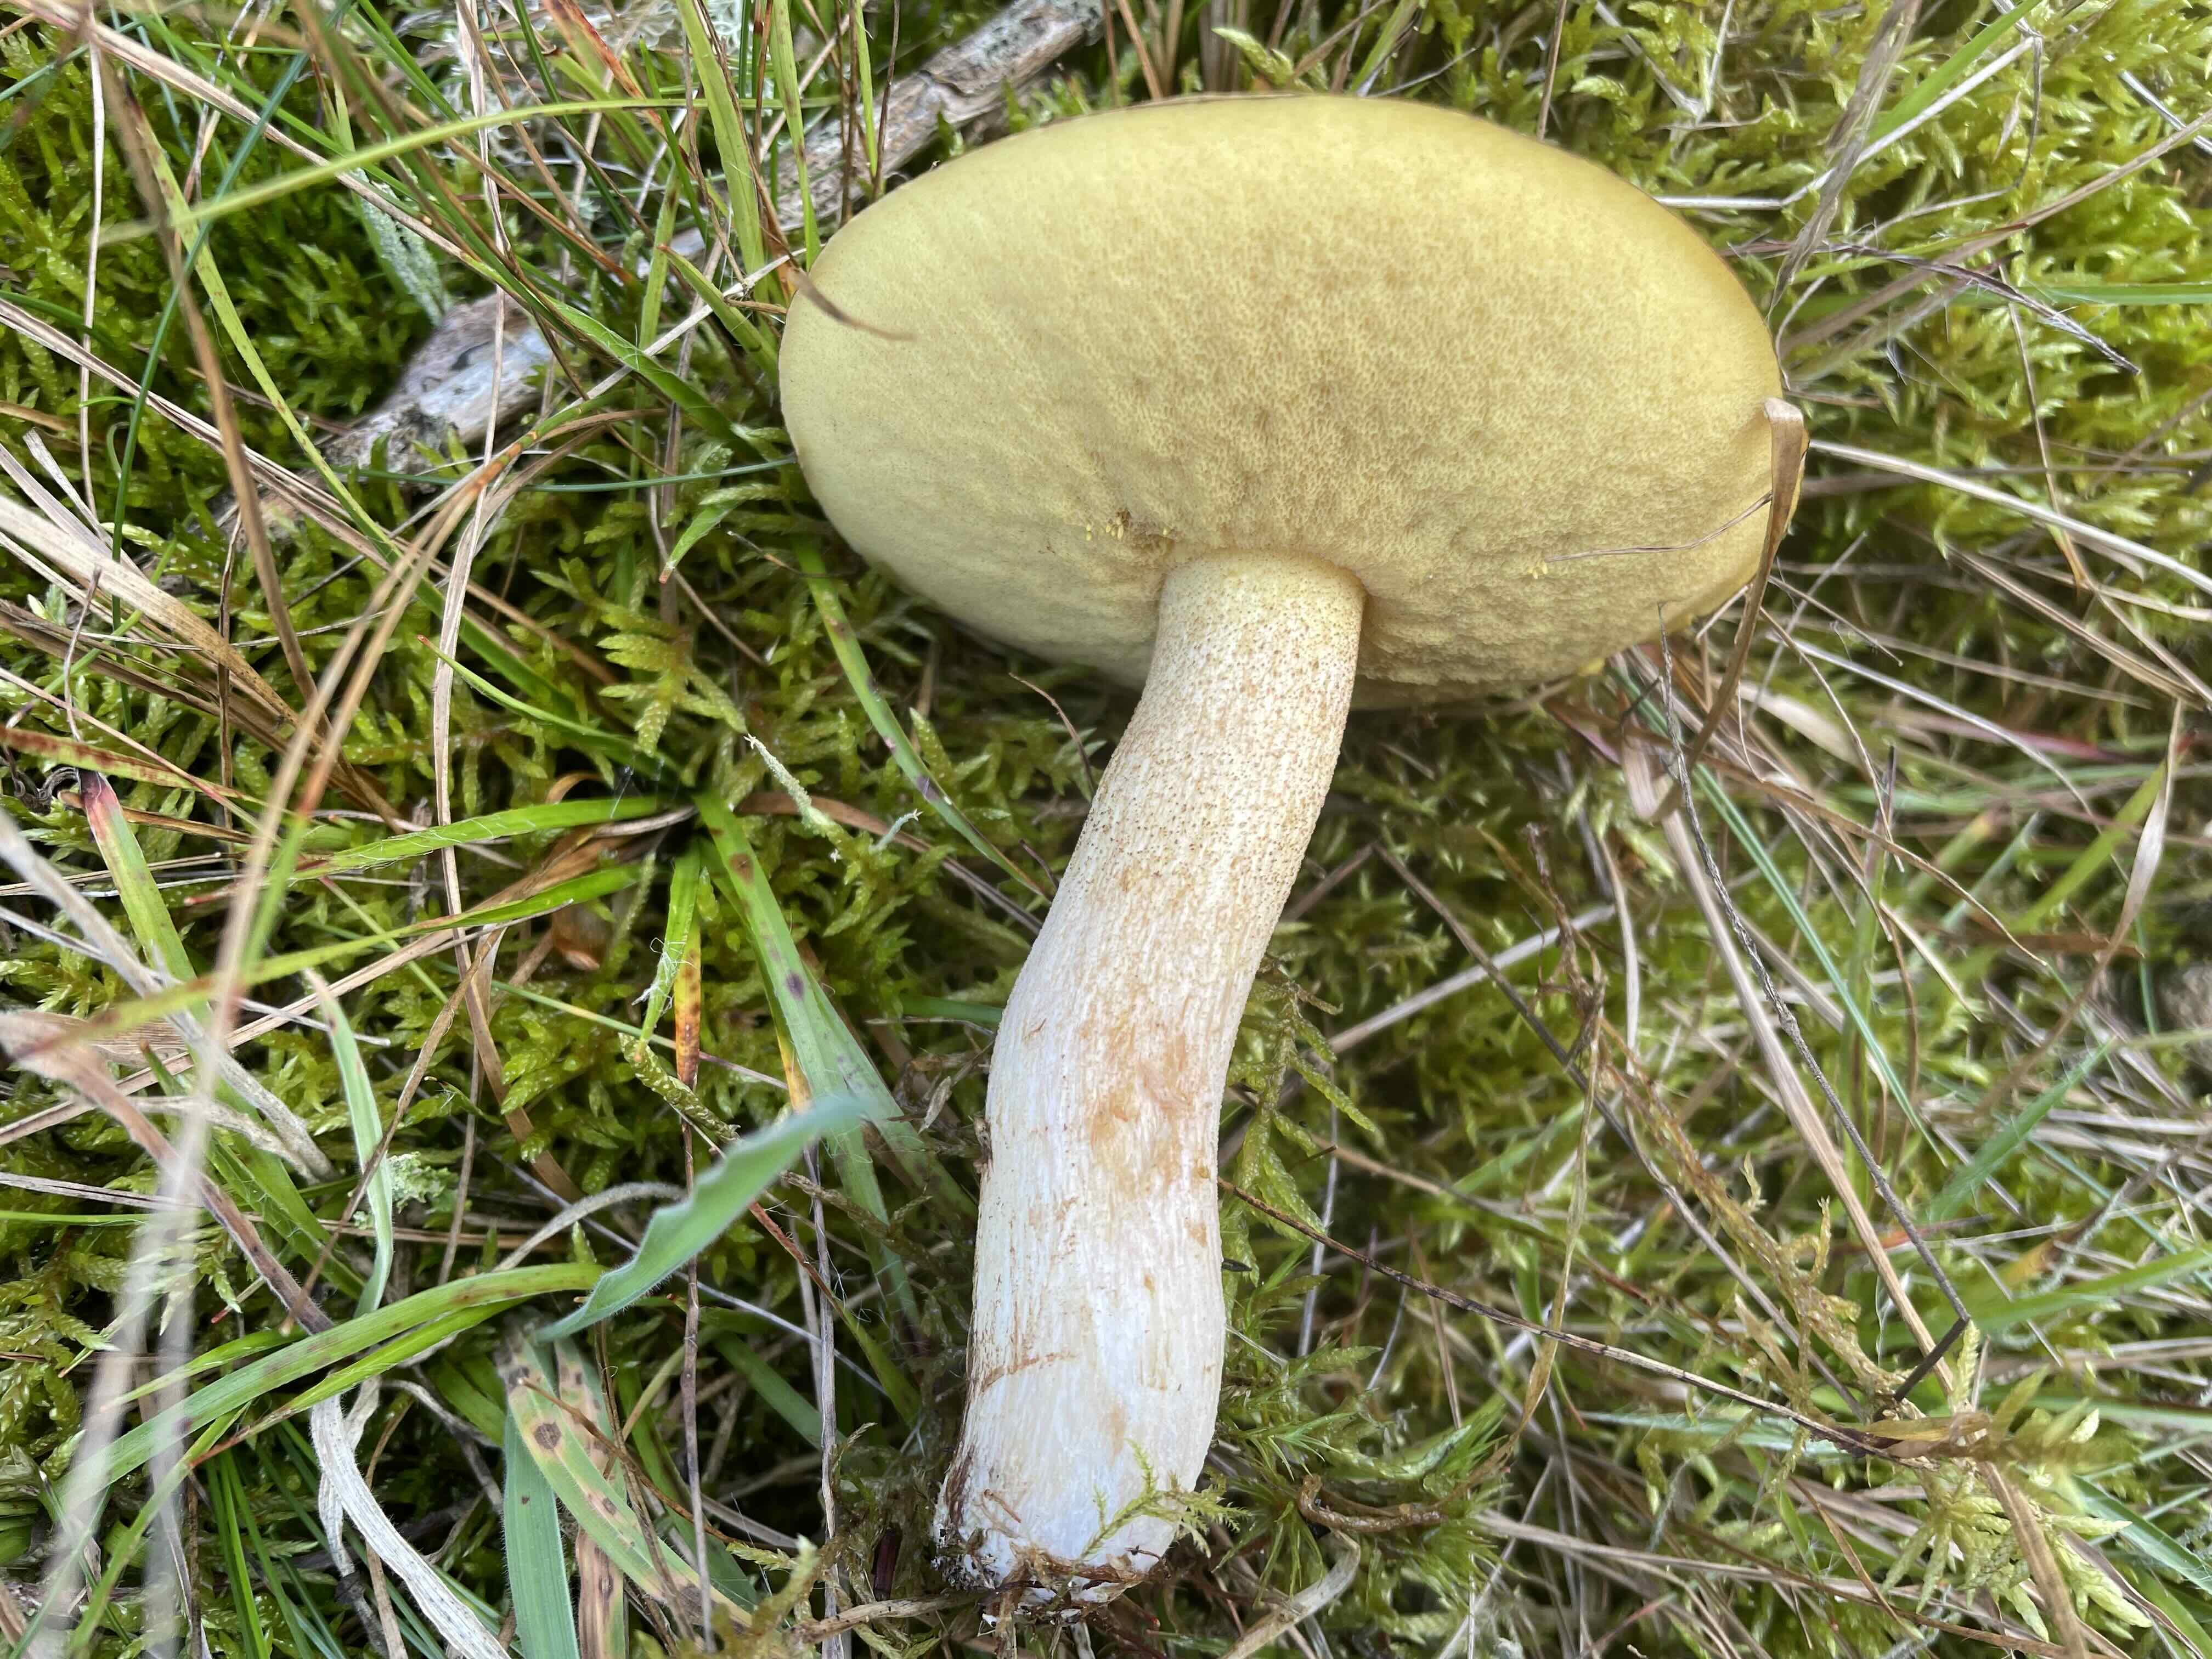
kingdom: Fungi
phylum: Basidiomycota
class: Agaricomycetes
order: Boletales
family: Suillaceae
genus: Suillus
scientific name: Suillus granulatus
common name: kornet slimrørhat
